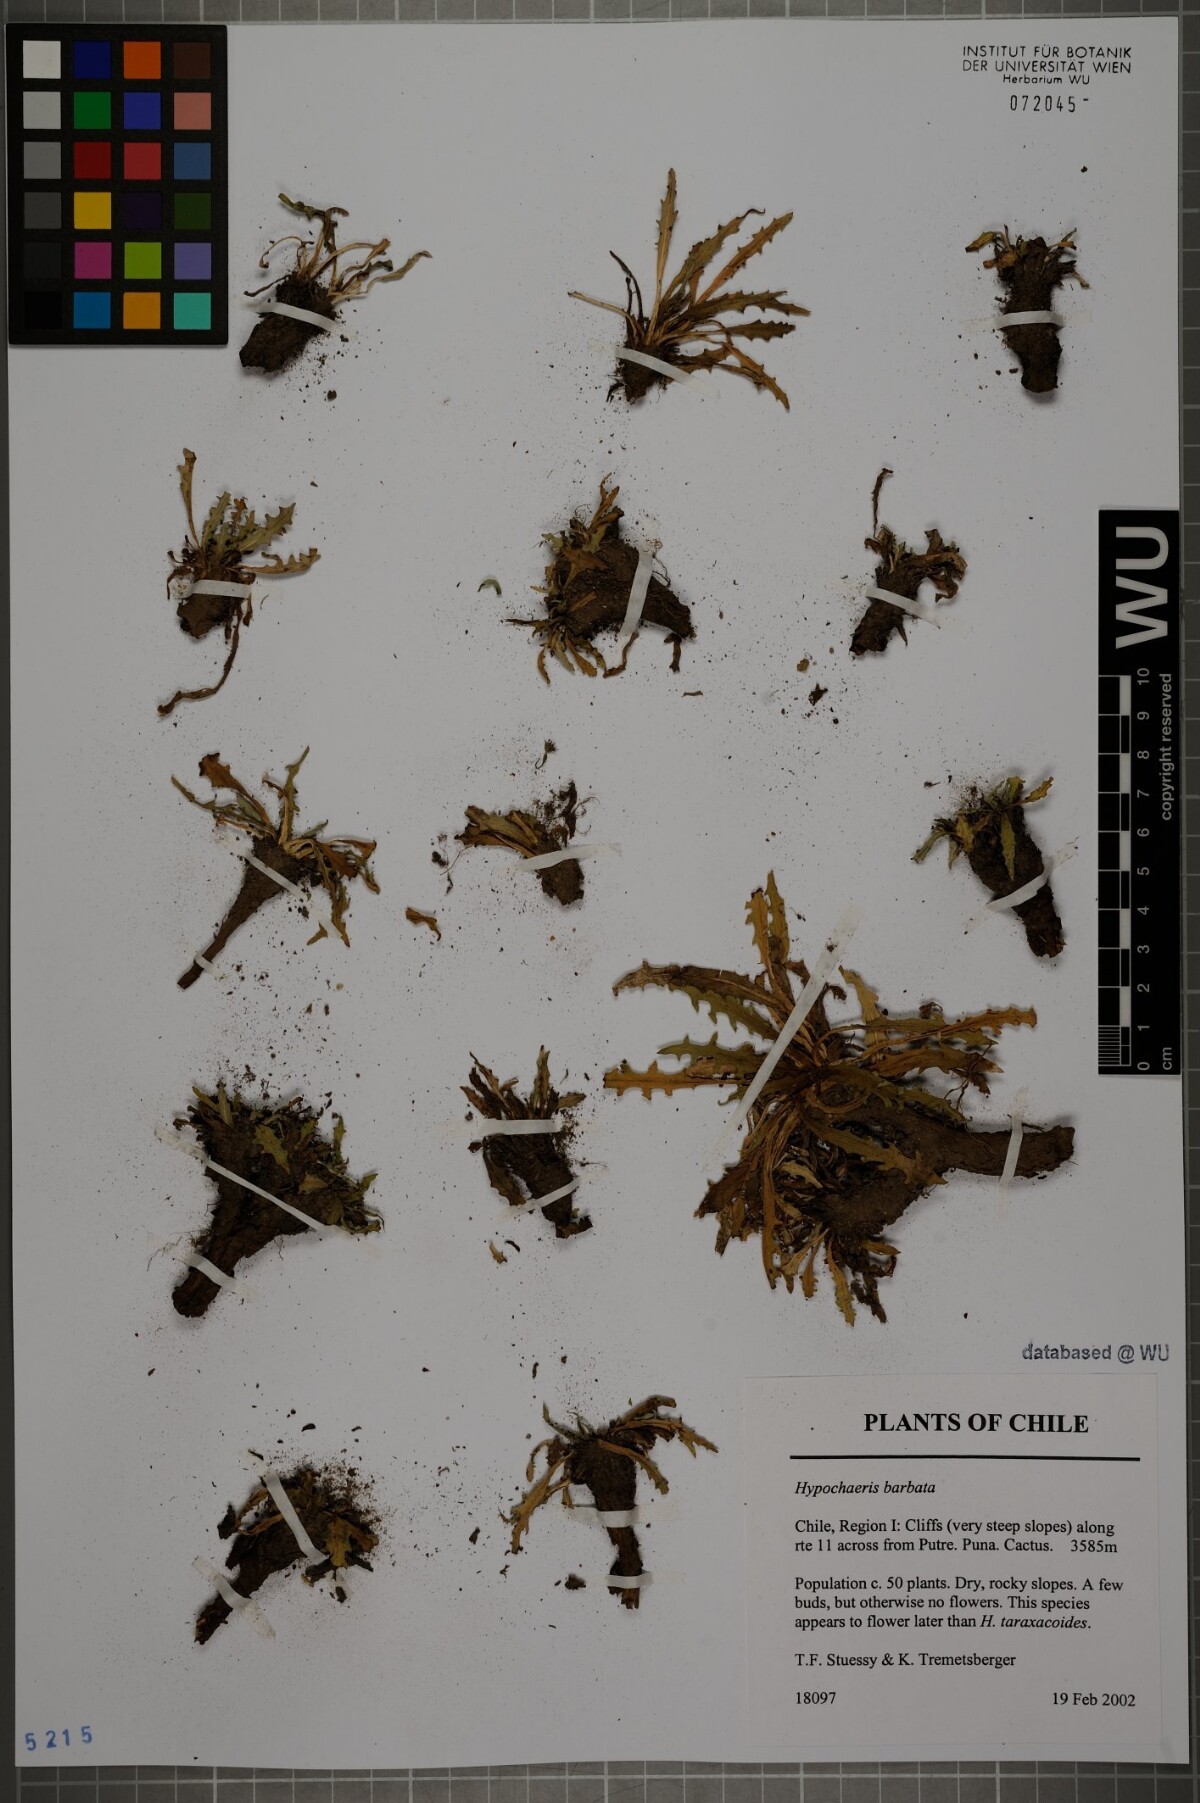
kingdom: Plantae
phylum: Tracheophyta
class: Magnoliopsida
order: Asterales
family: Asteraceae
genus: Hypochaeris
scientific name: Hypochaeris sessiliflora
